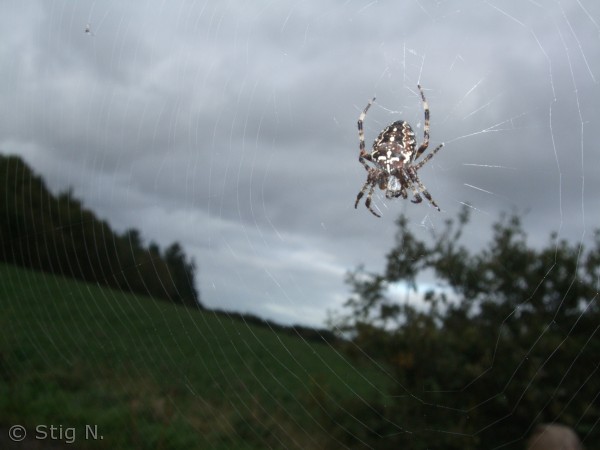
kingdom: Animalia
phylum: Arthropoda
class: Arachnida
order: Araneae
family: Araneidae
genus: Araneus
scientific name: Araneus diadematus
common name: Korsedderkop
